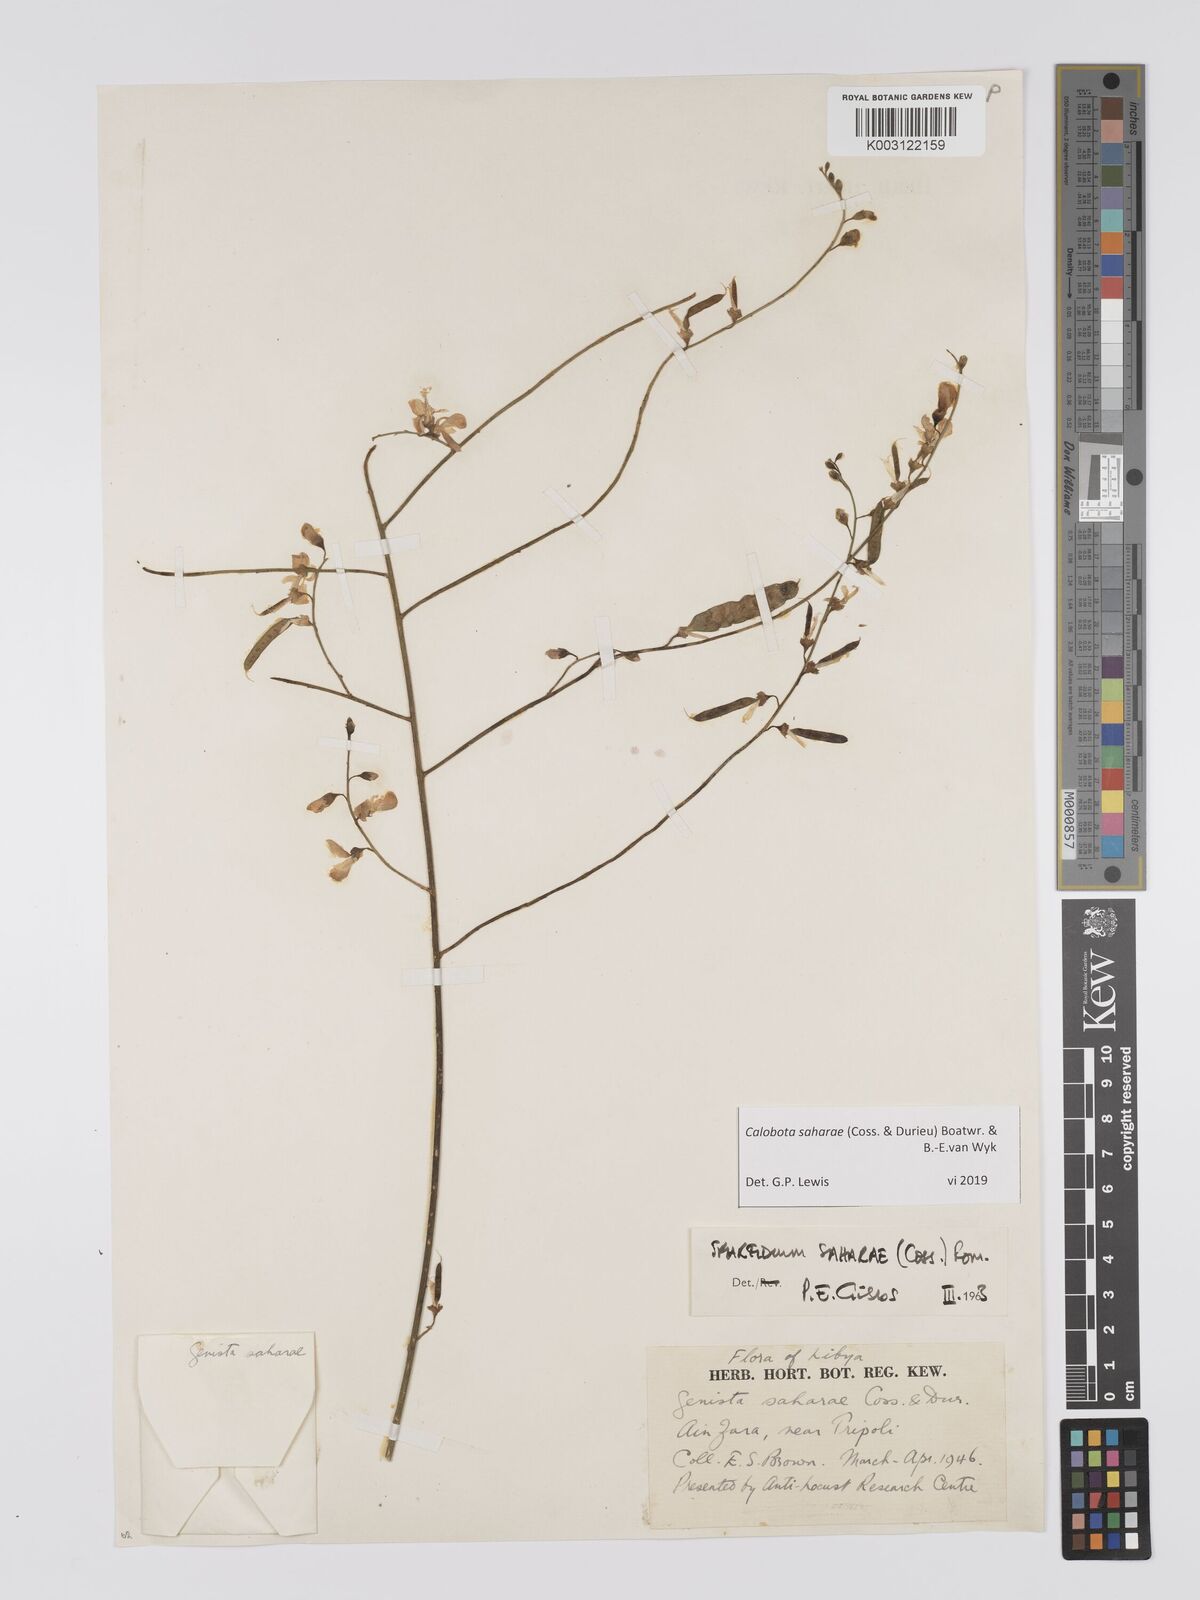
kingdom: Plantae
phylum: Tracheophyta
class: Magnoliopsida
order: Fabales
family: Fabaceae
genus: Calobota
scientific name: Calobota saharae
